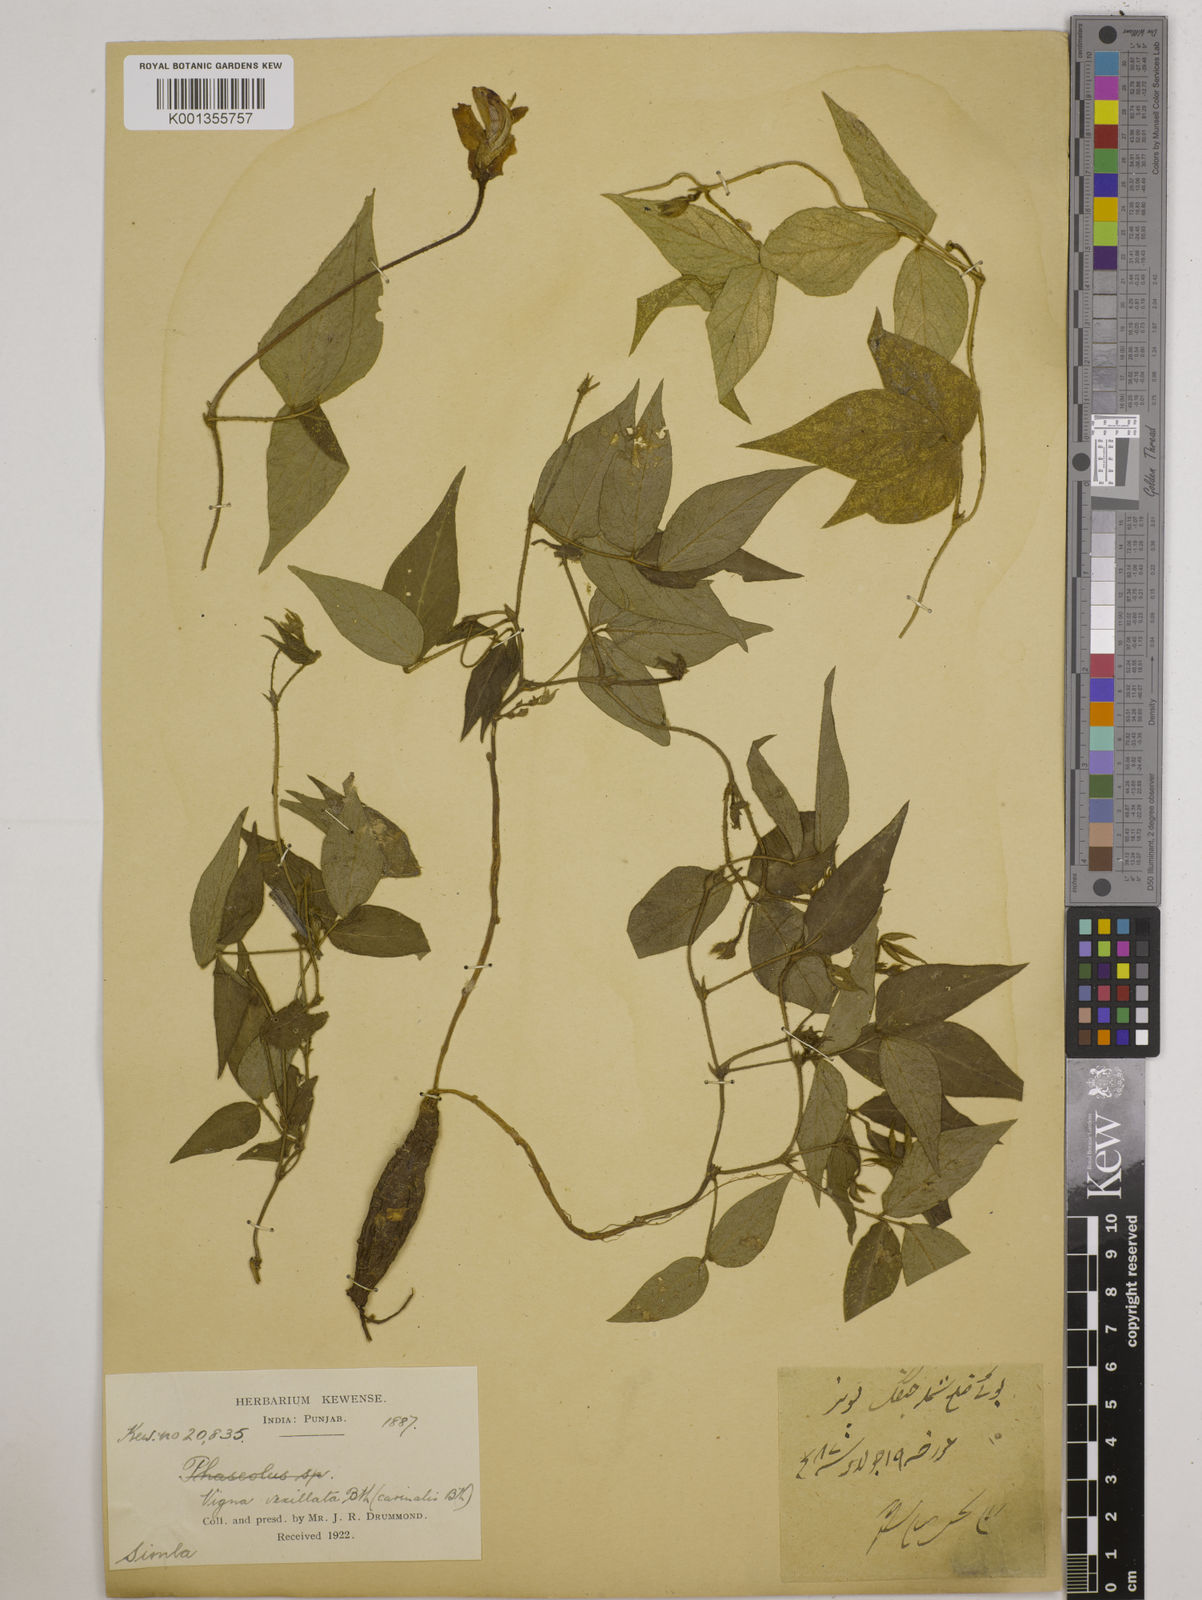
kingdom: Plantae
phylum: Tracheophyta
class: Magnoliopsida
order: Fabales
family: Fabaceae
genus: Vigna
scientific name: Vigna vexillata
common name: Zombi pea
